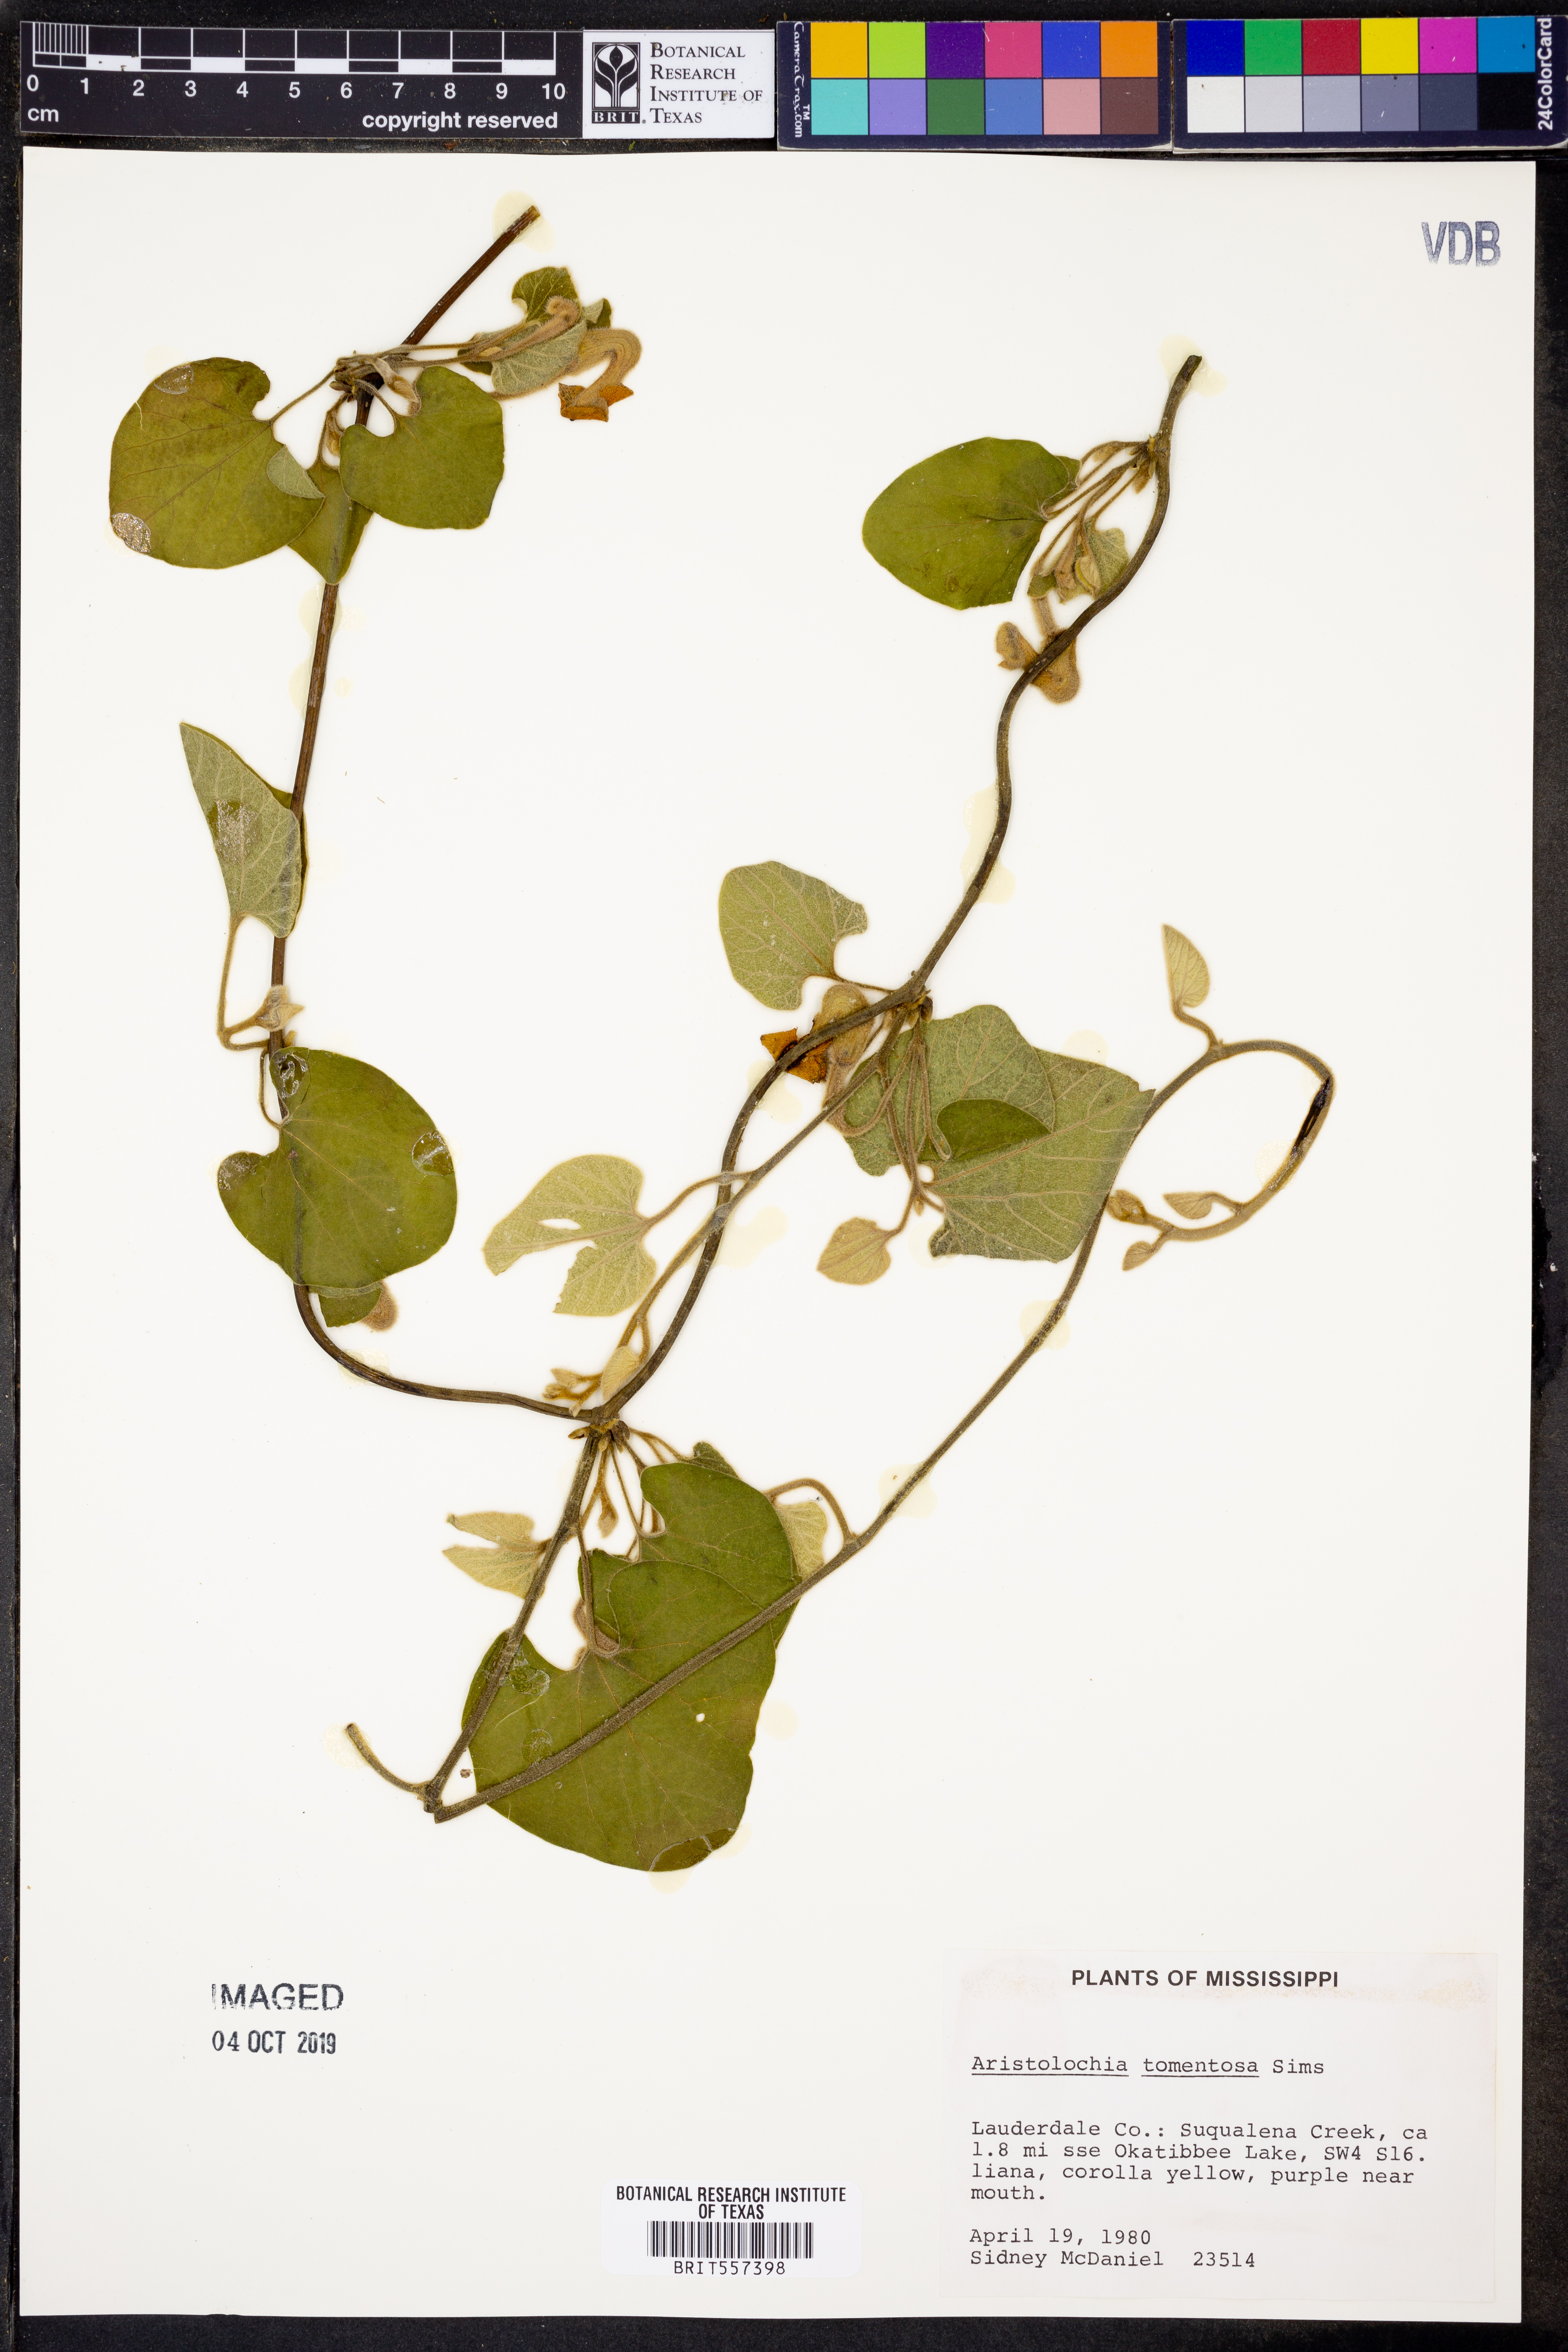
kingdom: Plantae
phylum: Tracheophyta
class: Magnoliopsida
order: Piperales
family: Aristolochiaceae
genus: Isotrema
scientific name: Isotrema tomentosum
